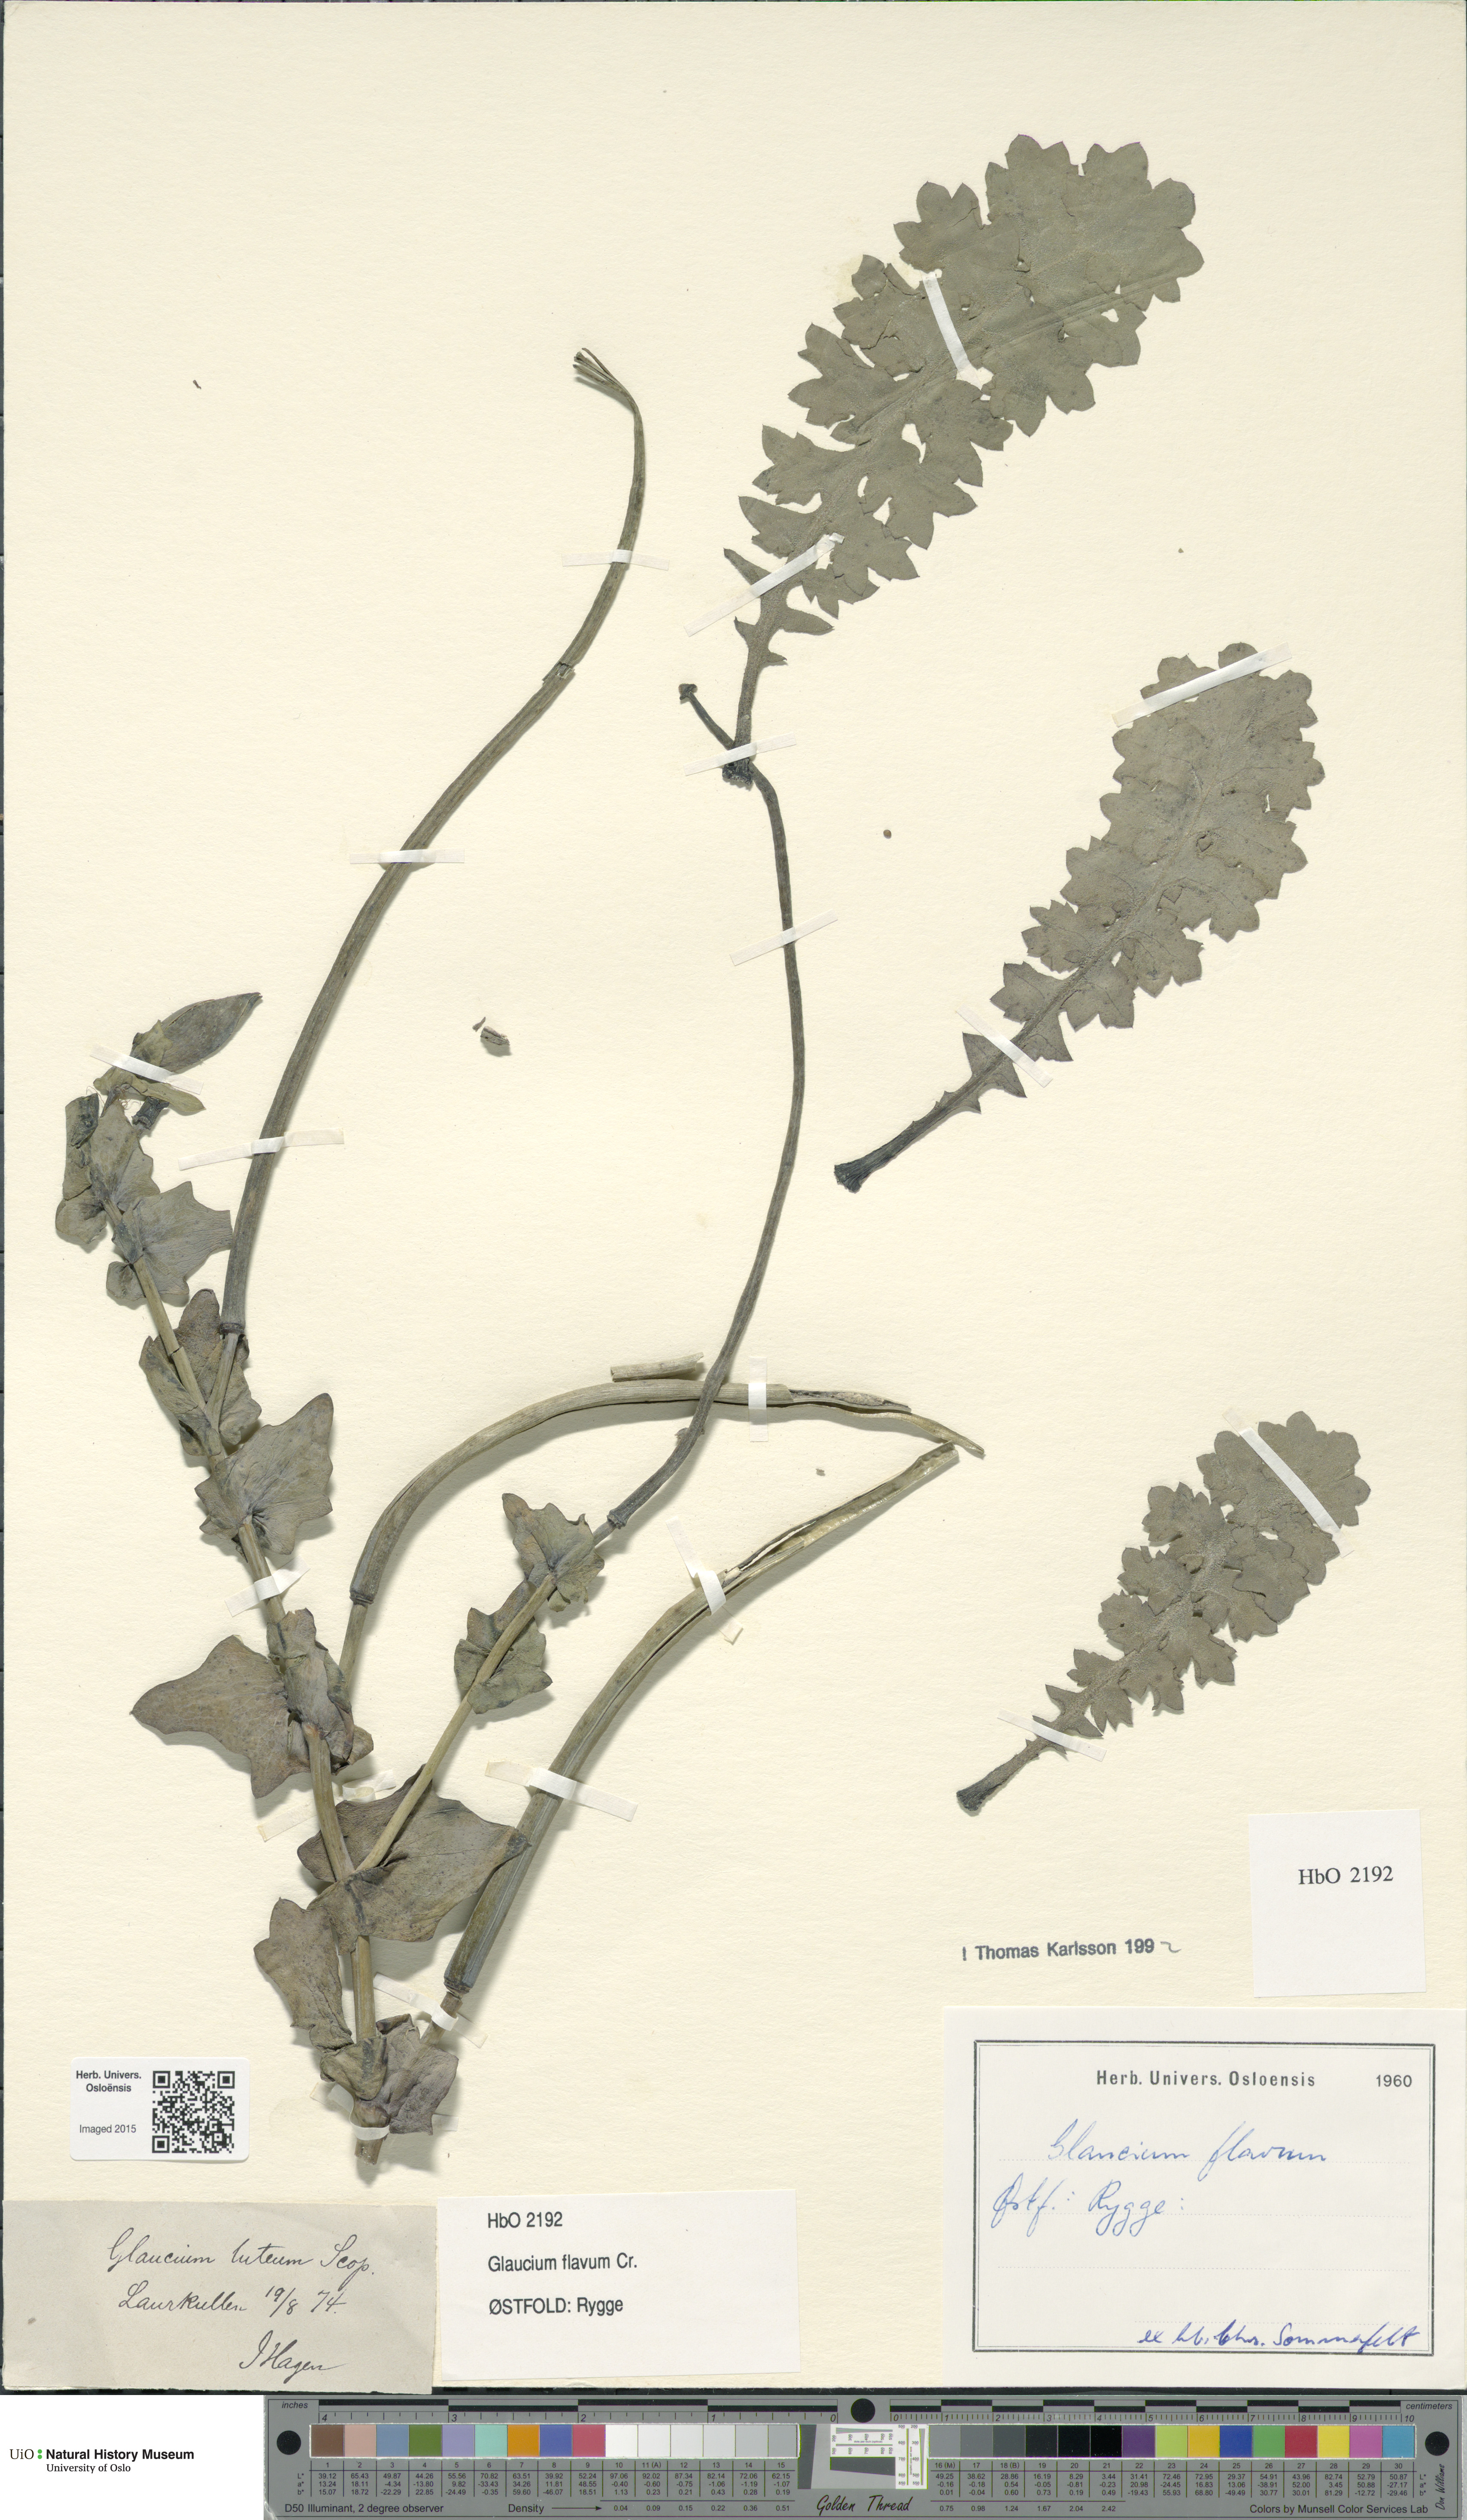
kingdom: Plantae
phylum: Tracheophyta
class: Magnoliopsida
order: Ranunculales
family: Papaveraceae
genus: Glaucium
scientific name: Glaucium flavum
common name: Yellow horned-poppy
